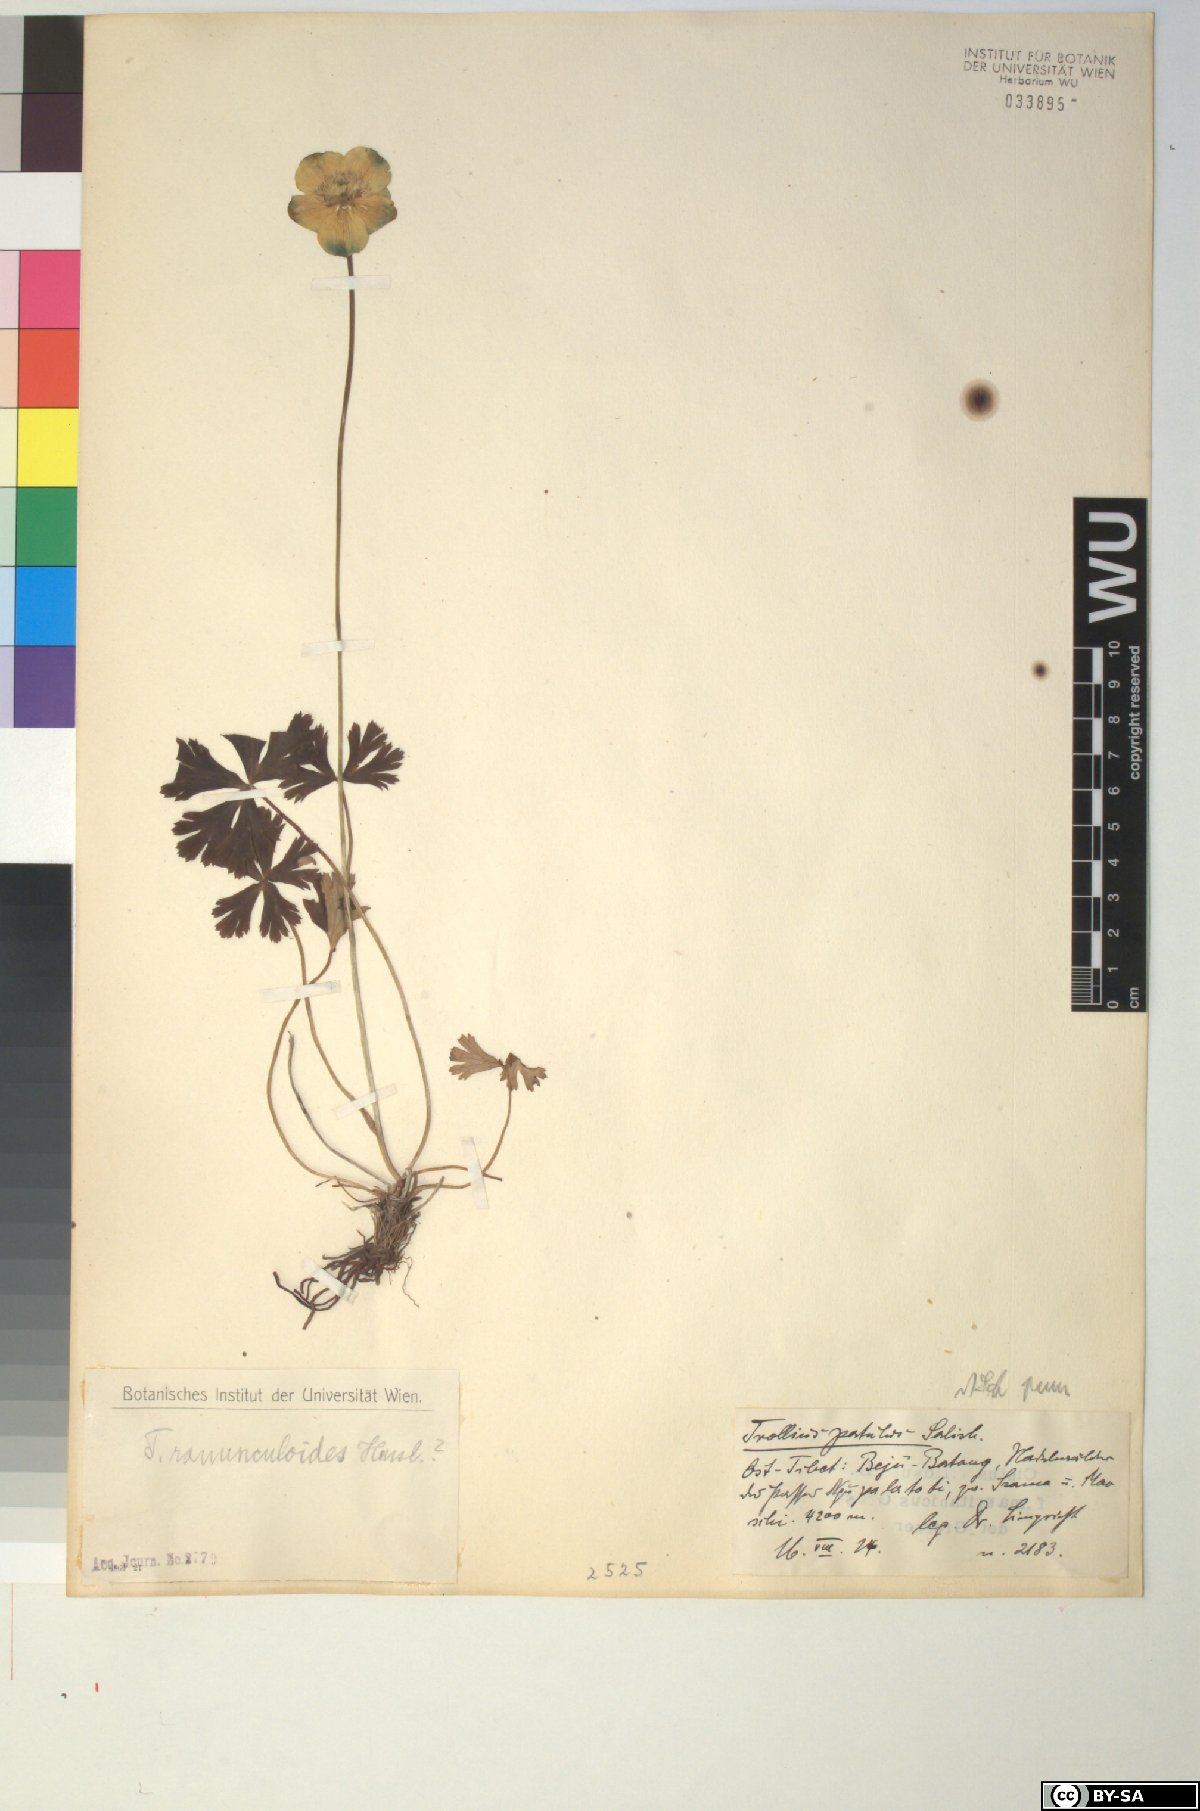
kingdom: Plantae
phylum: Tracheophyta
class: Magnoliopsida
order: Ranunculales
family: Ranunculaceae
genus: Trollius
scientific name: Trollius ranunculoides
